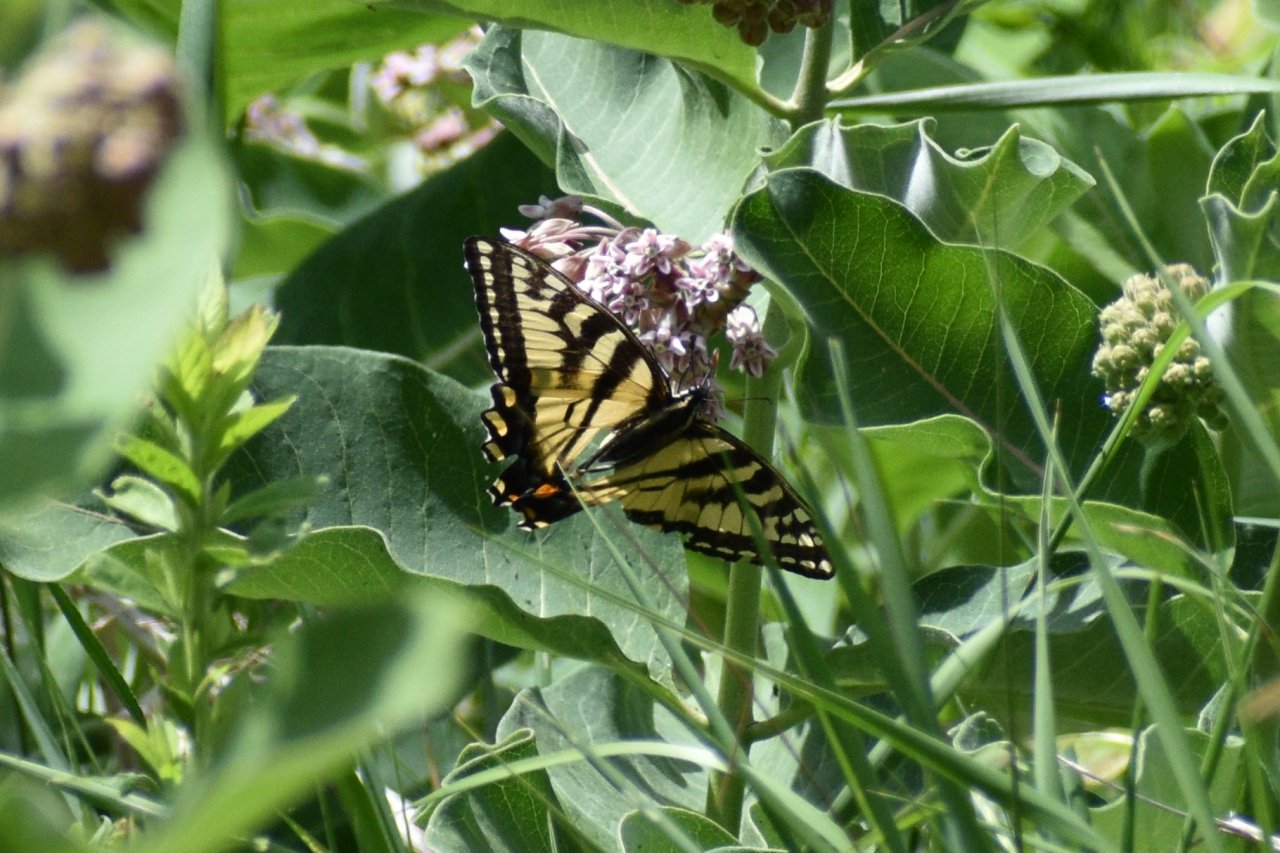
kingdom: Animalia
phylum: Arthropoda
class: Insecta
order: Lepidoptera
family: Papilionidae
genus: Pterourus
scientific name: Pterourus canadensis
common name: Canadian Tiger Swallowtail
